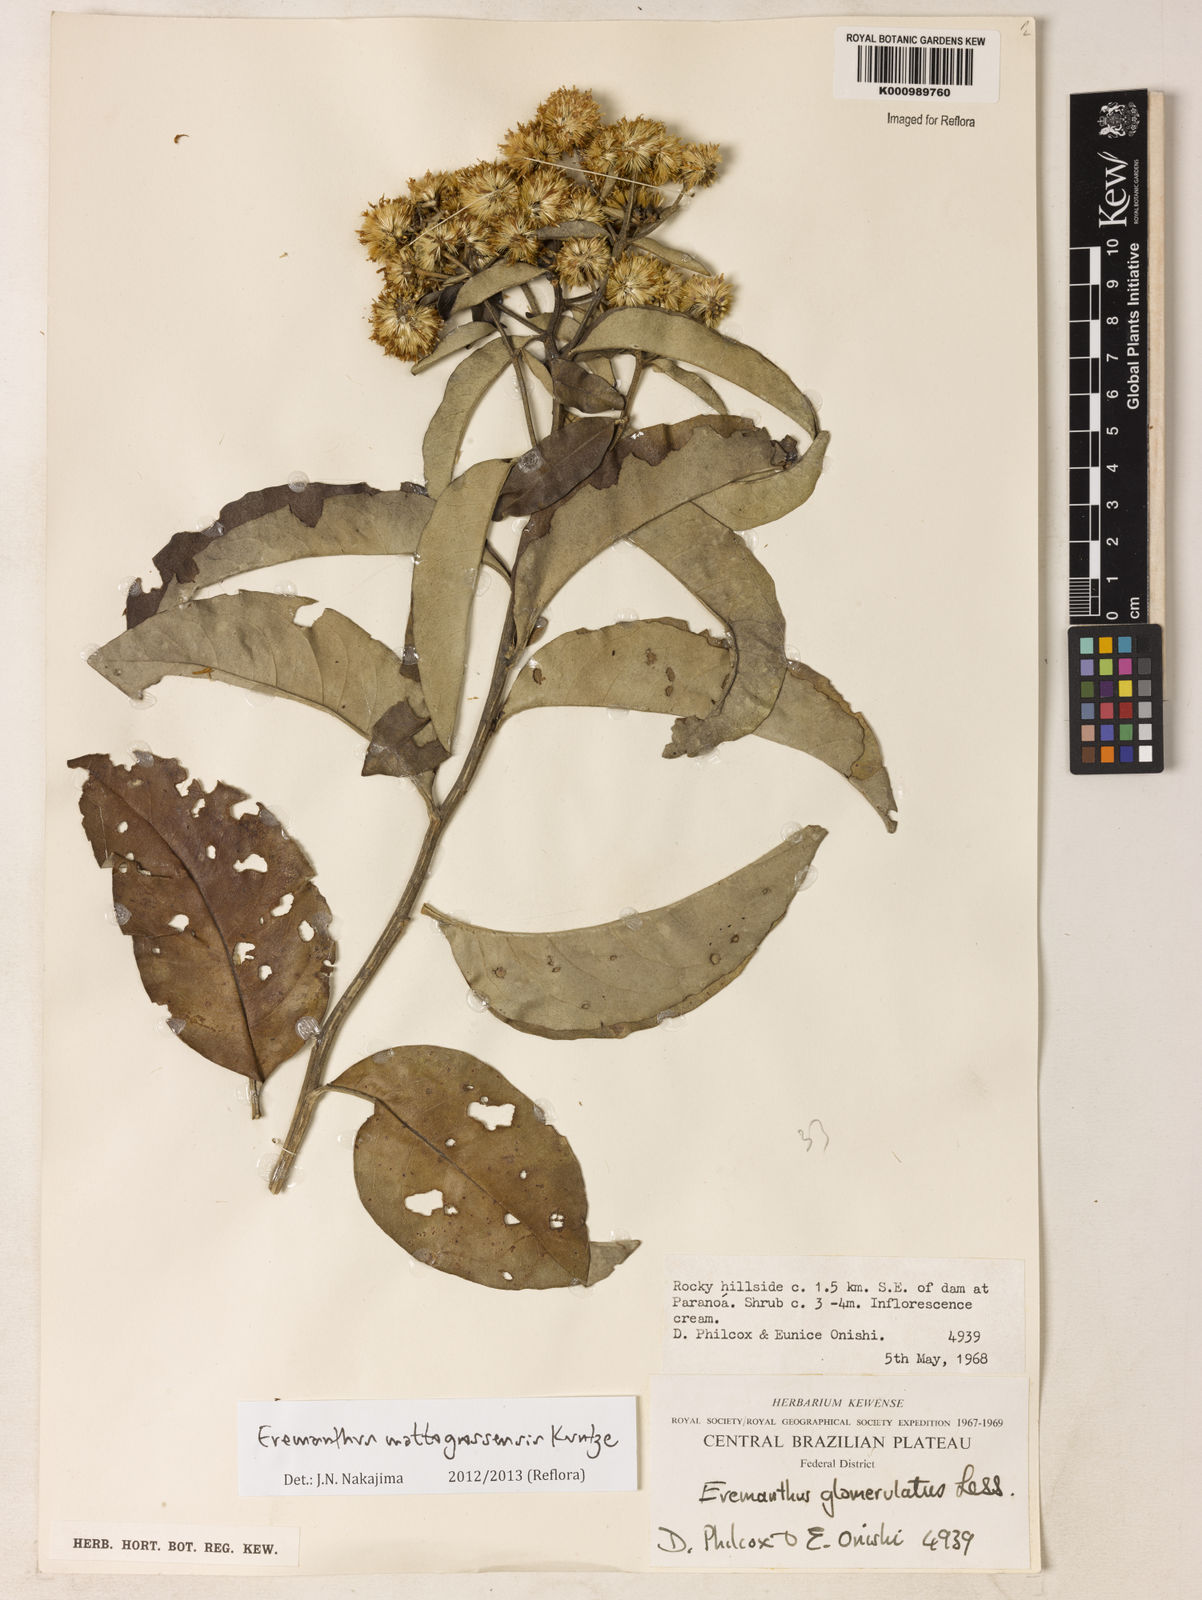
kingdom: Plantae
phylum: Tracheophyta
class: Magnoliopsida
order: Asterales
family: Asteraceae
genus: Eremanthus
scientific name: Eremanthus mattogrossensis
